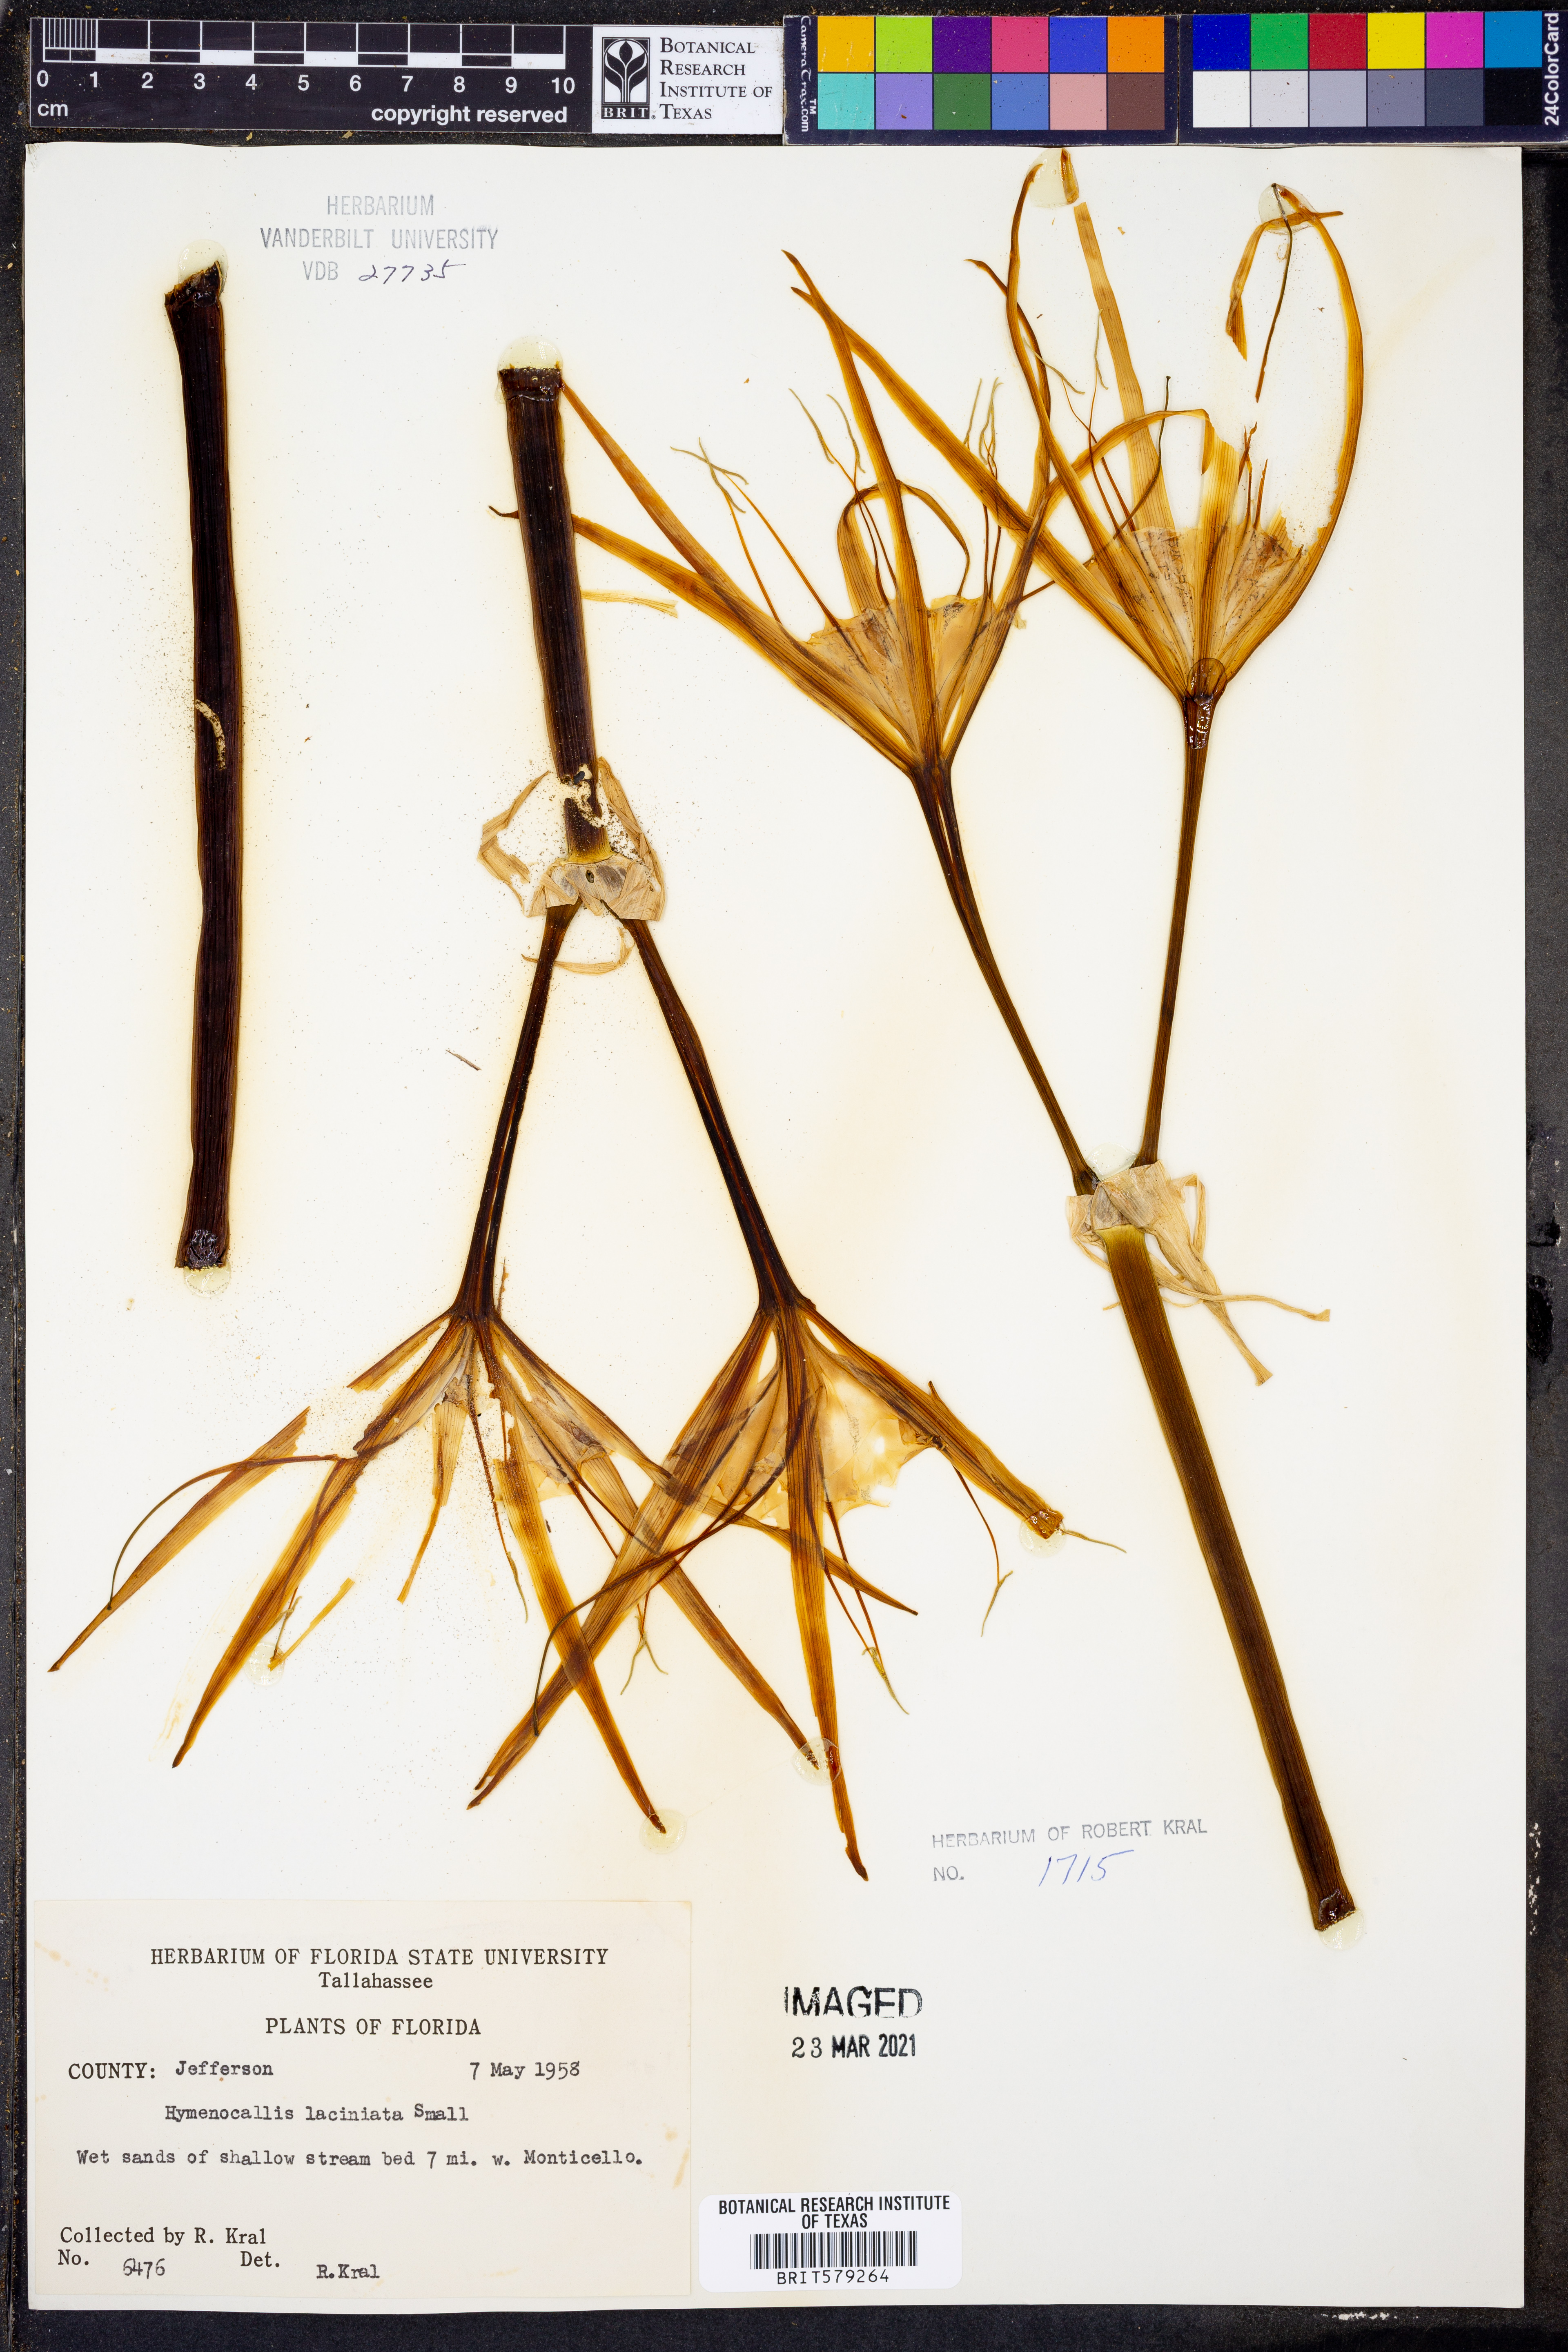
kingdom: Plantae
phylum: Tracheophyta
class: Liliopsida
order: Asparagales
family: Amaryllidaceae
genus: Hymenocallis
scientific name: Hymenocallis rotata
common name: Spring-run spider-lily
